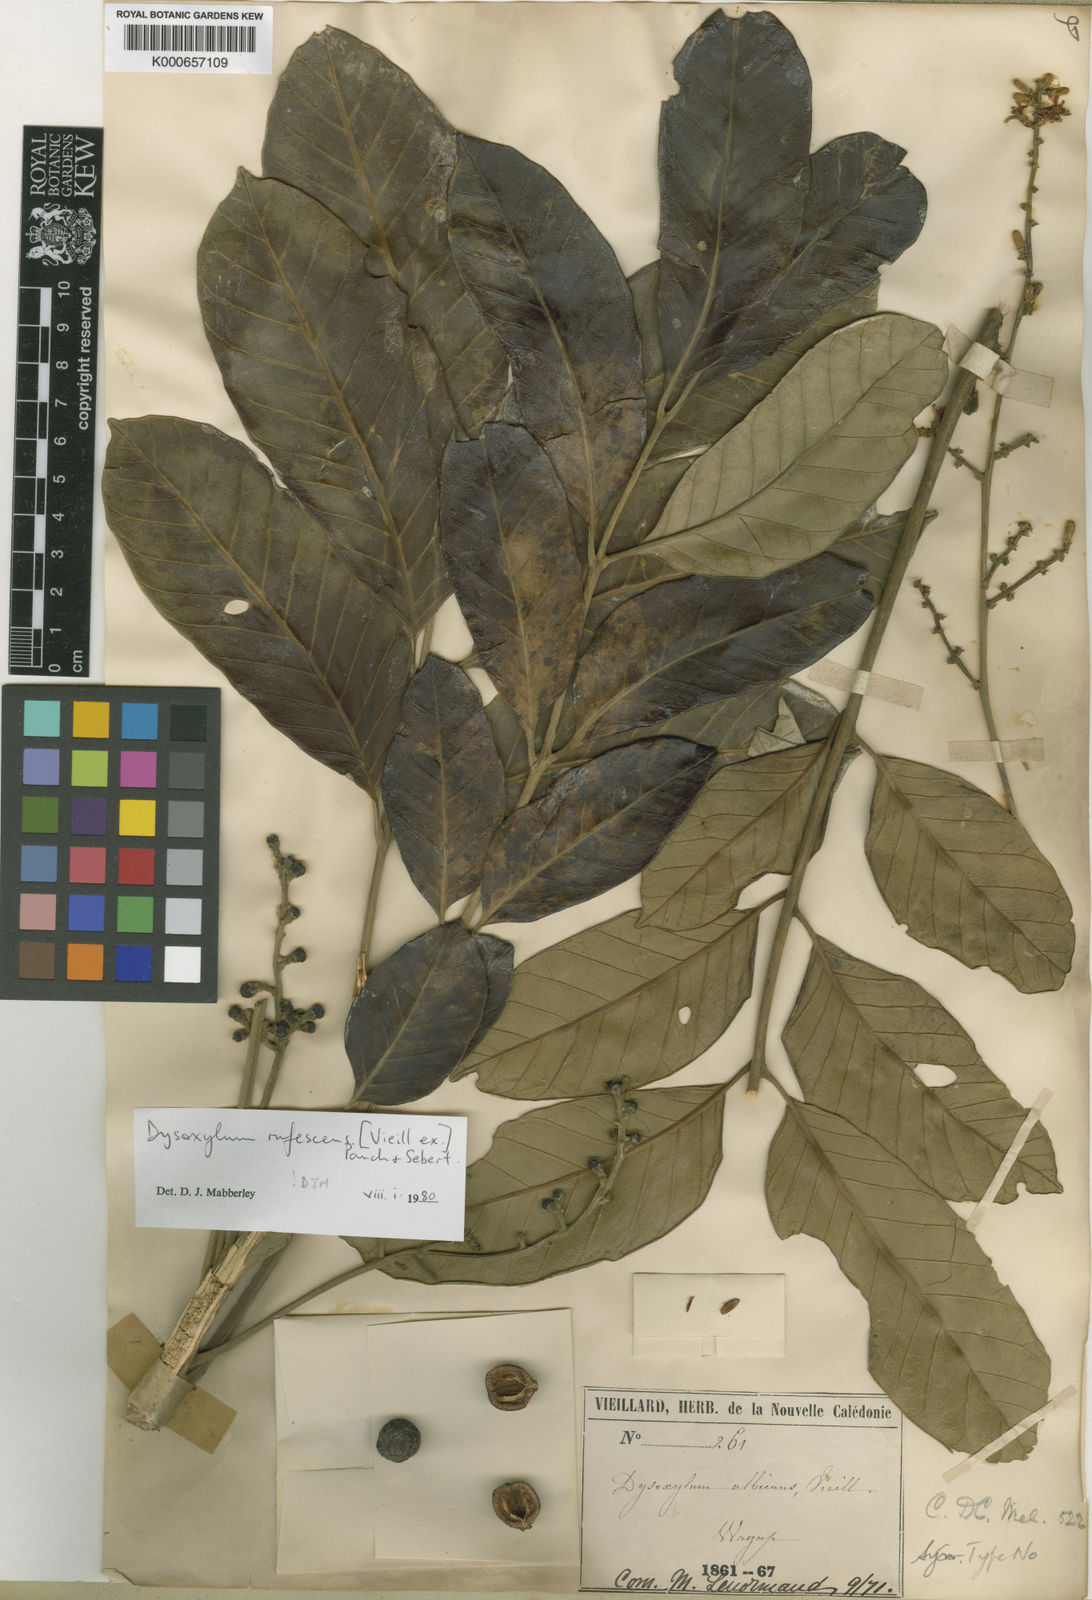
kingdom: Plantae
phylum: Tracheophyta
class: Magnoliopsida
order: Sapindales
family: Meliaceae
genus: Didymocheton
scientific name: Didymocheton rufescens
